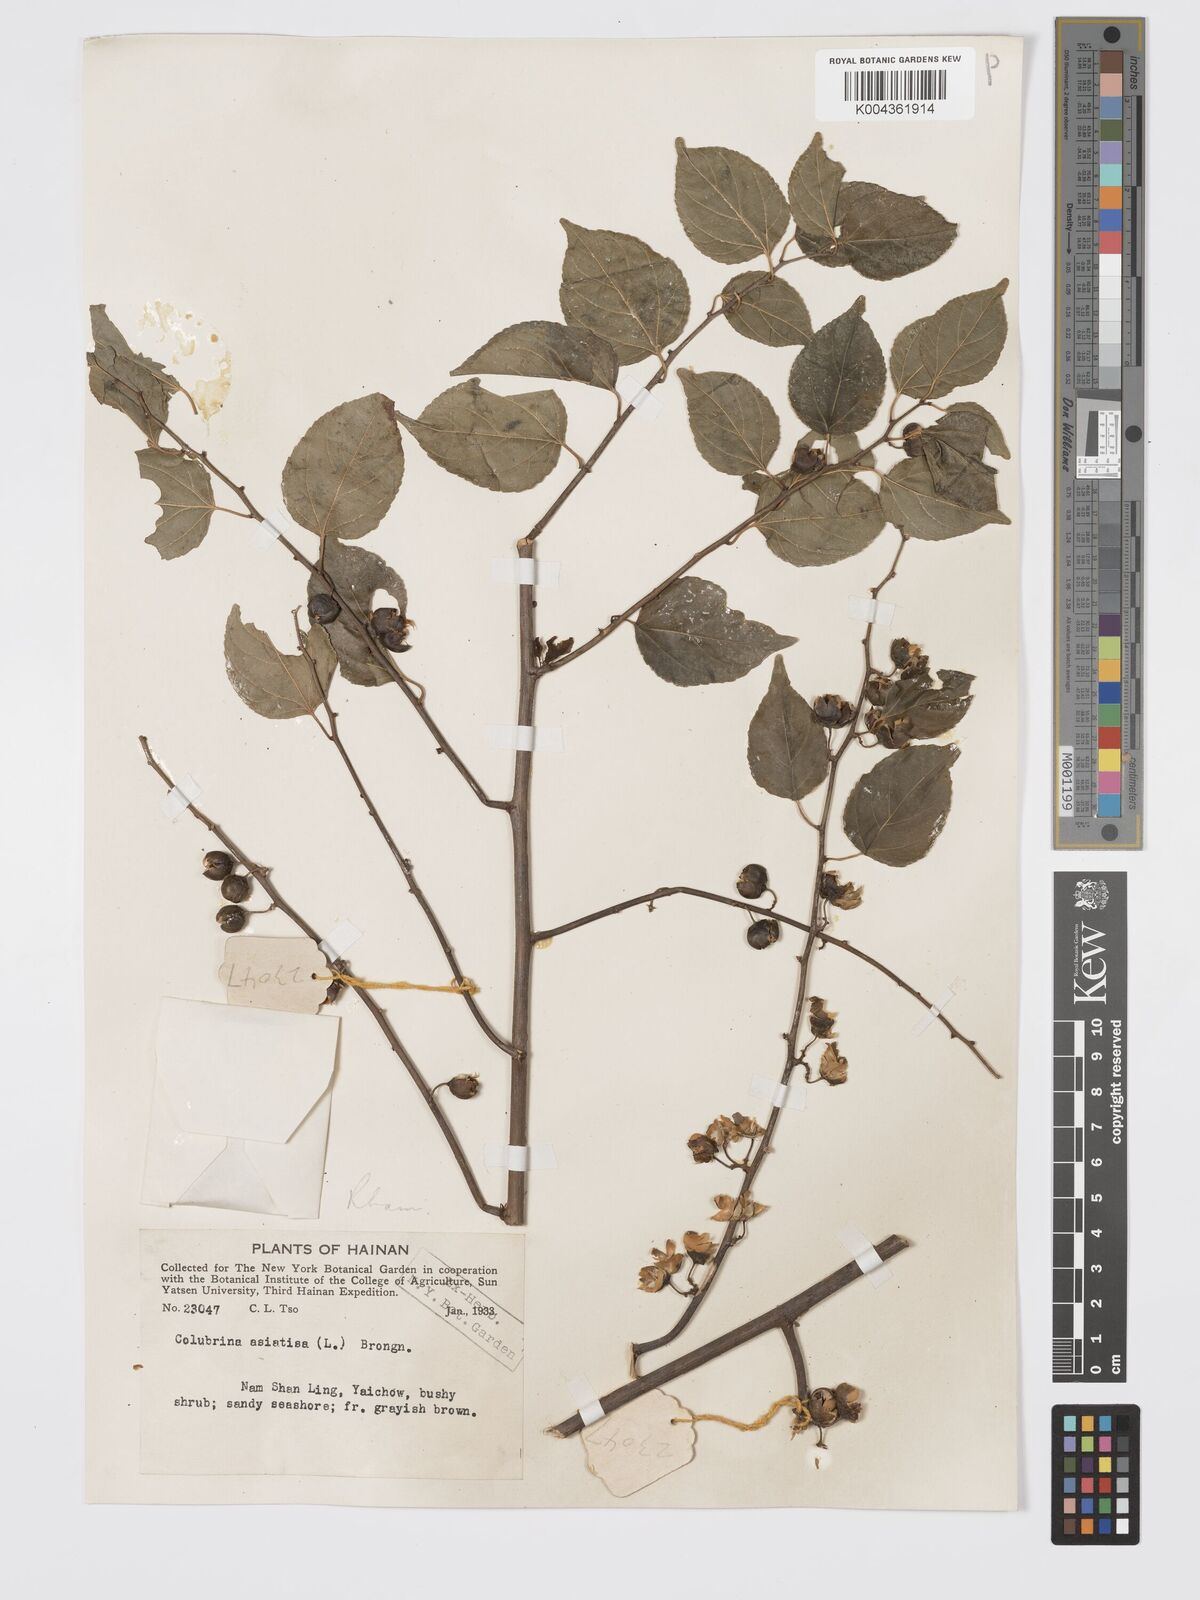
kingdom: Plantae
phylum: Tracheophyta
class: Magnoliopsida
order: Rosales
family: Rhamnaceae
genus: Colubrina
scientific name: Colubrina asiatica
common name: Asian nakedwood
